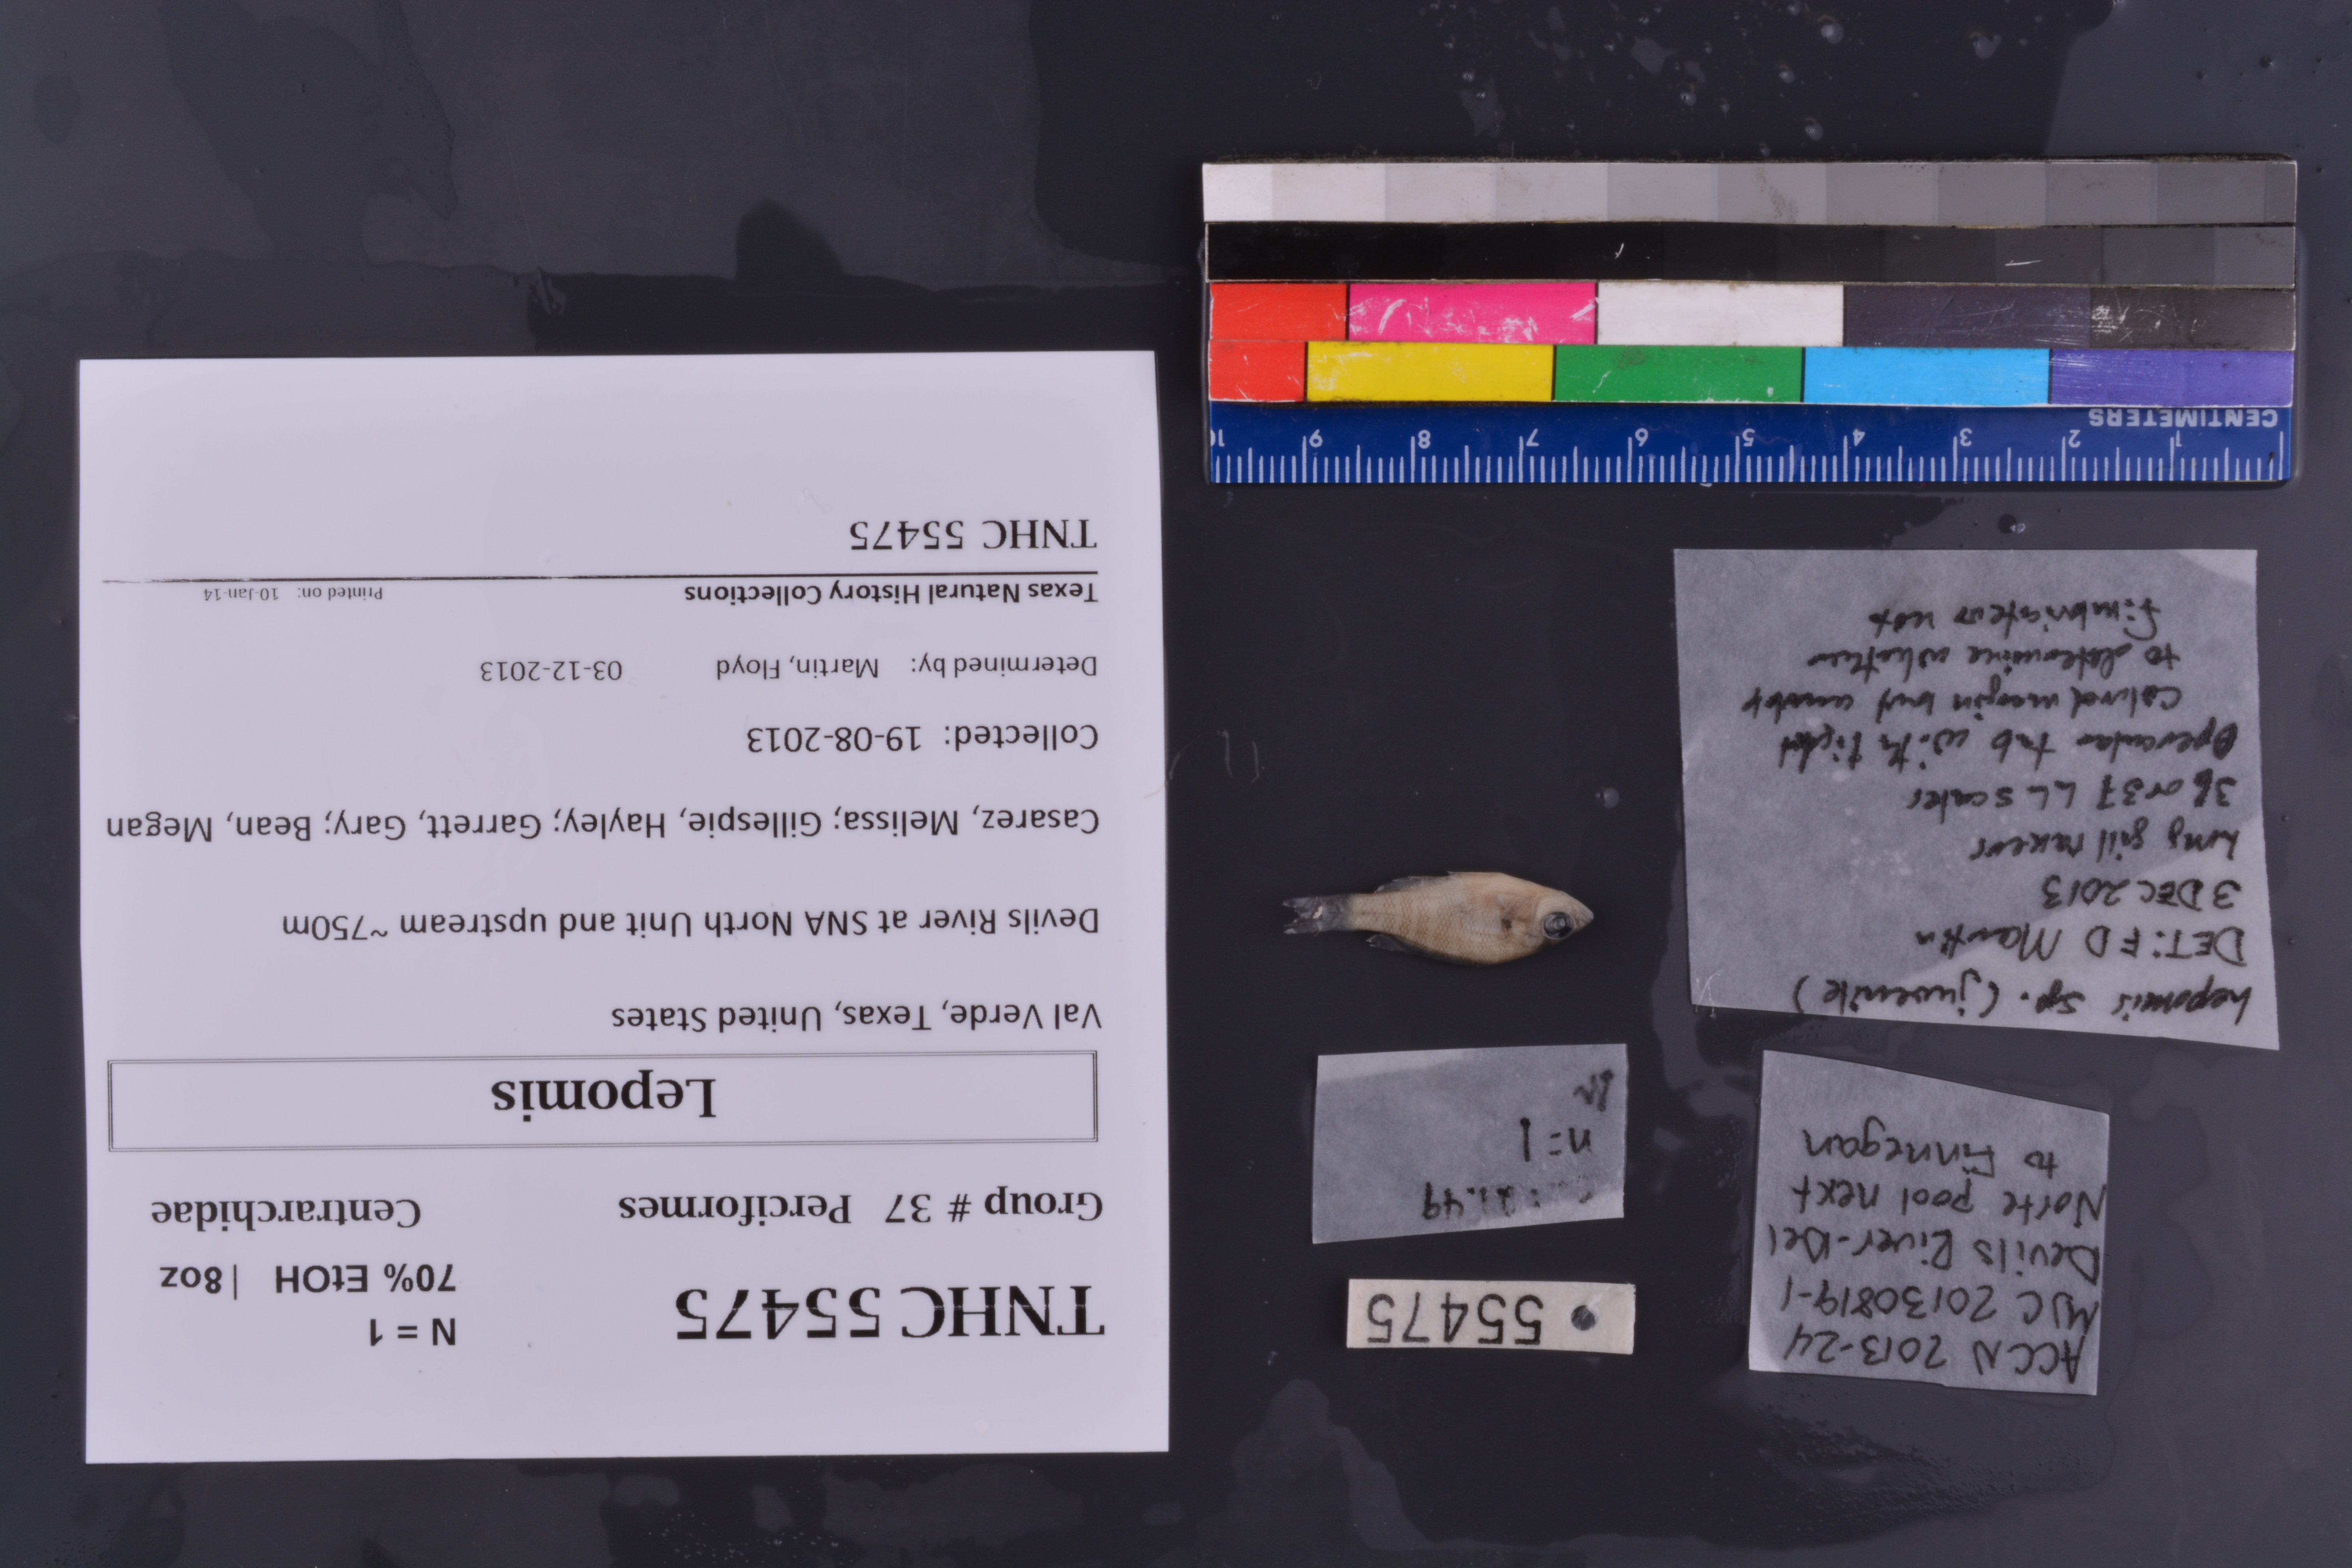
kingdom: Animalia
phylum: Chordata
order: Perciformes
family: Centrarchidae
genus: Lepomis
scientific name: Lepomis
